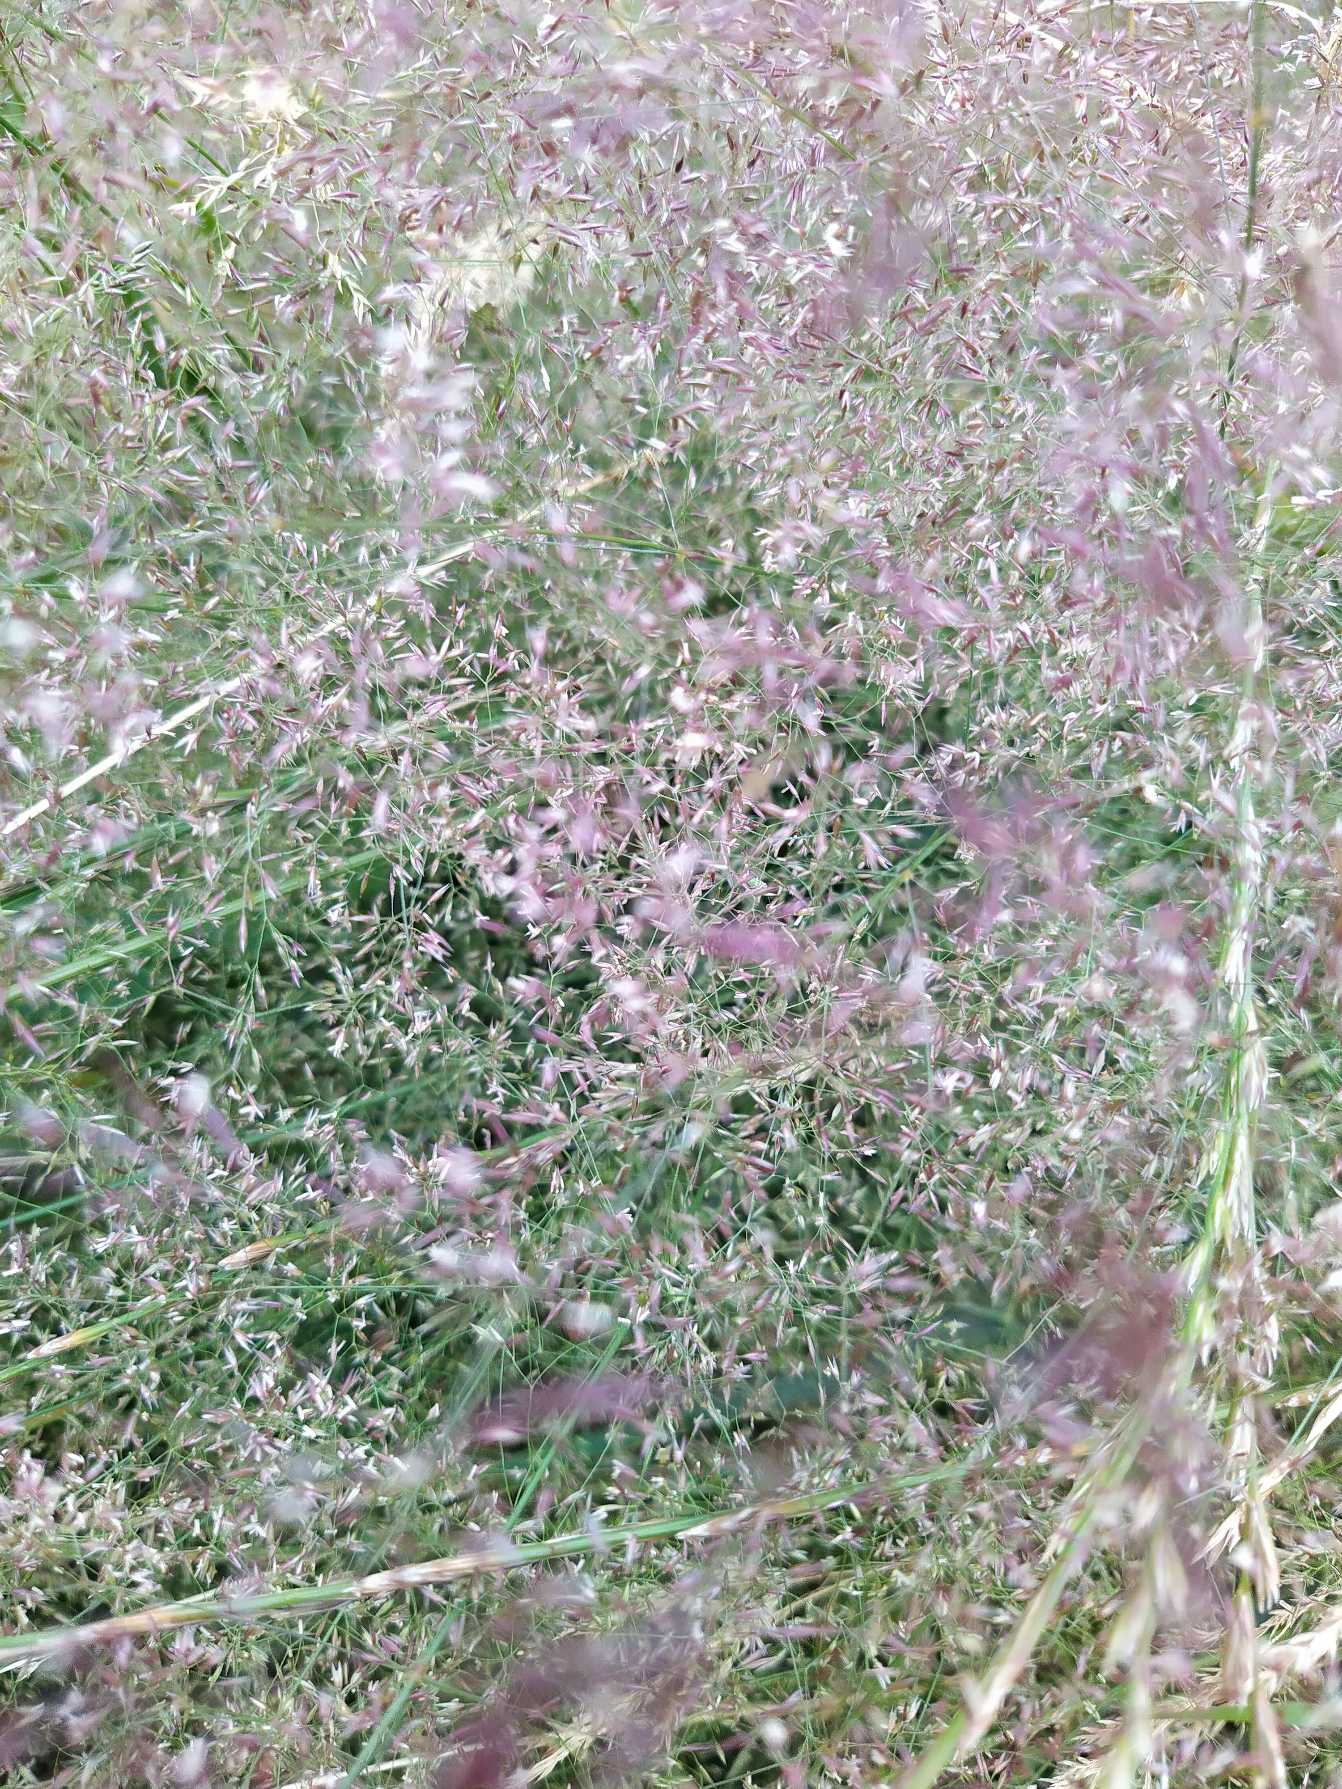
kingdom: Plantae
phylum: Tracheophyta
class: Liliopsida
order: Poales
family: Poaceae
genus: Agrostis
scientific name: Agrostis capillaris
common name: Almindelig hvene
